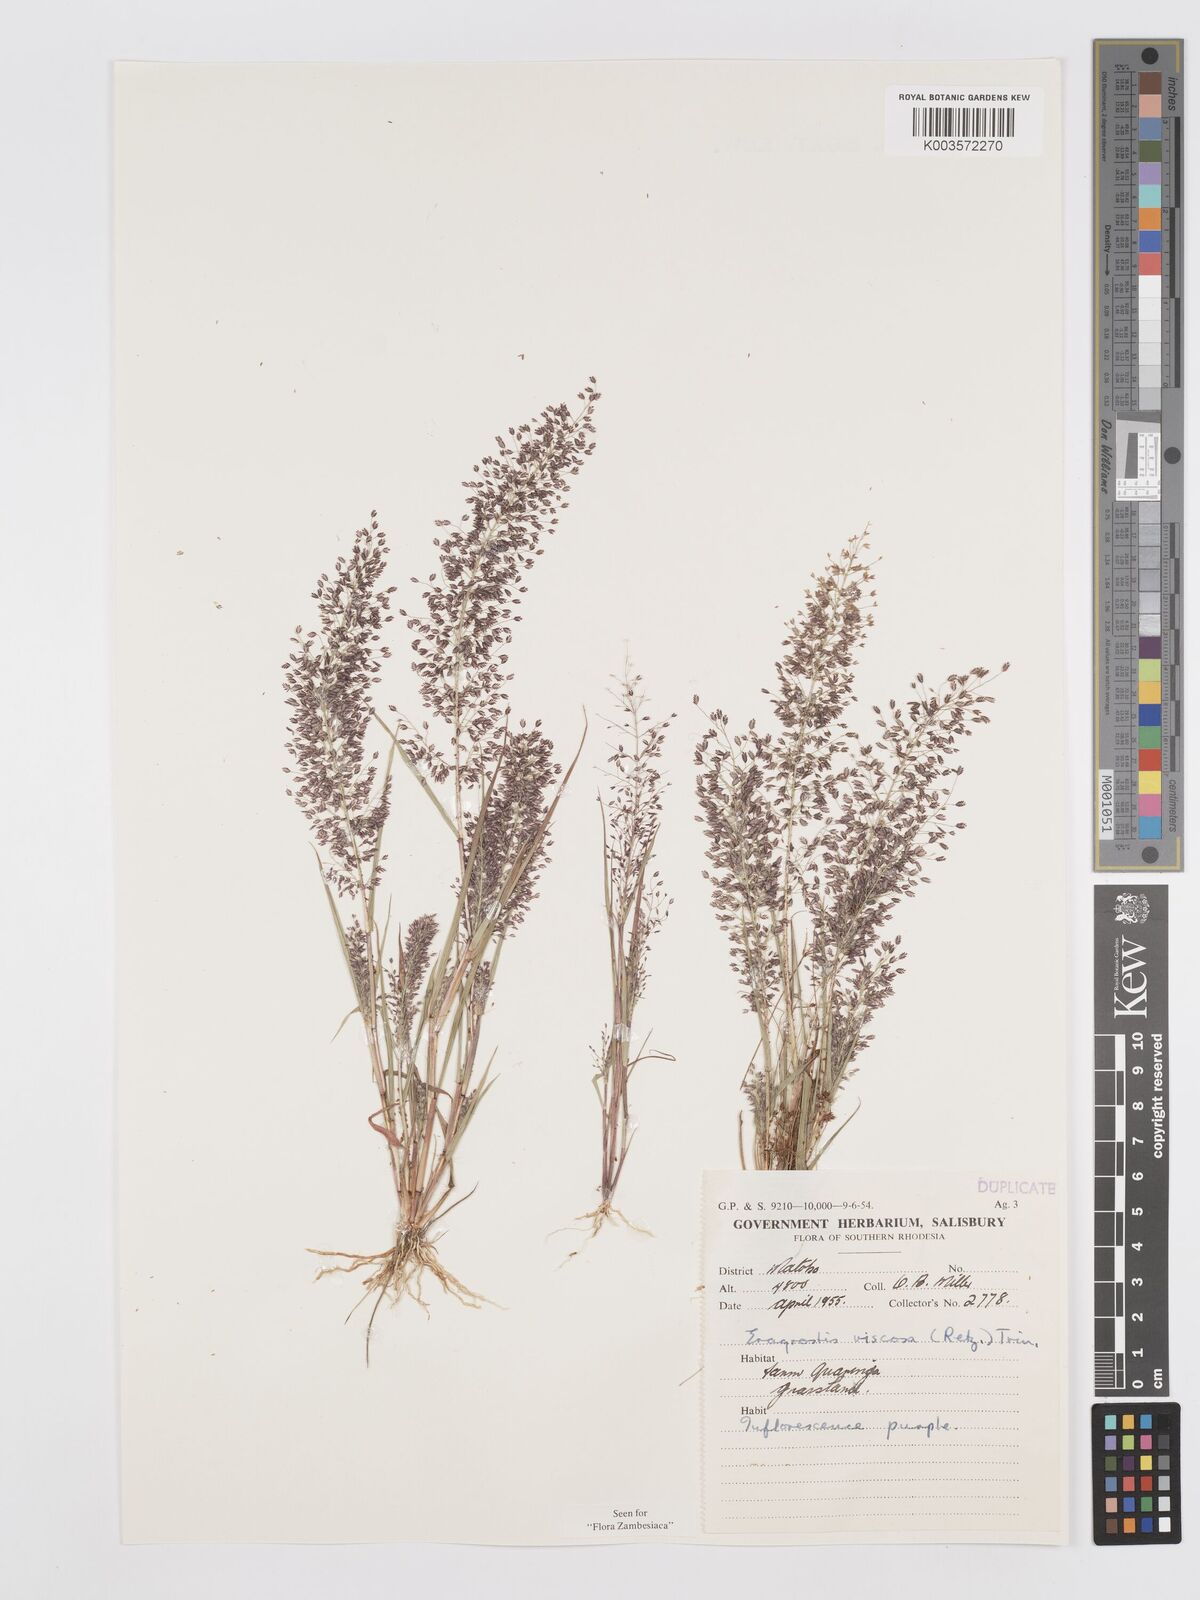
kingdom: Plantae
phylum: Tracheophyta
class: Liliopsida
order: Poales
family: Poaceae
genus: Eragrostis
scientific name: Eragrostis
